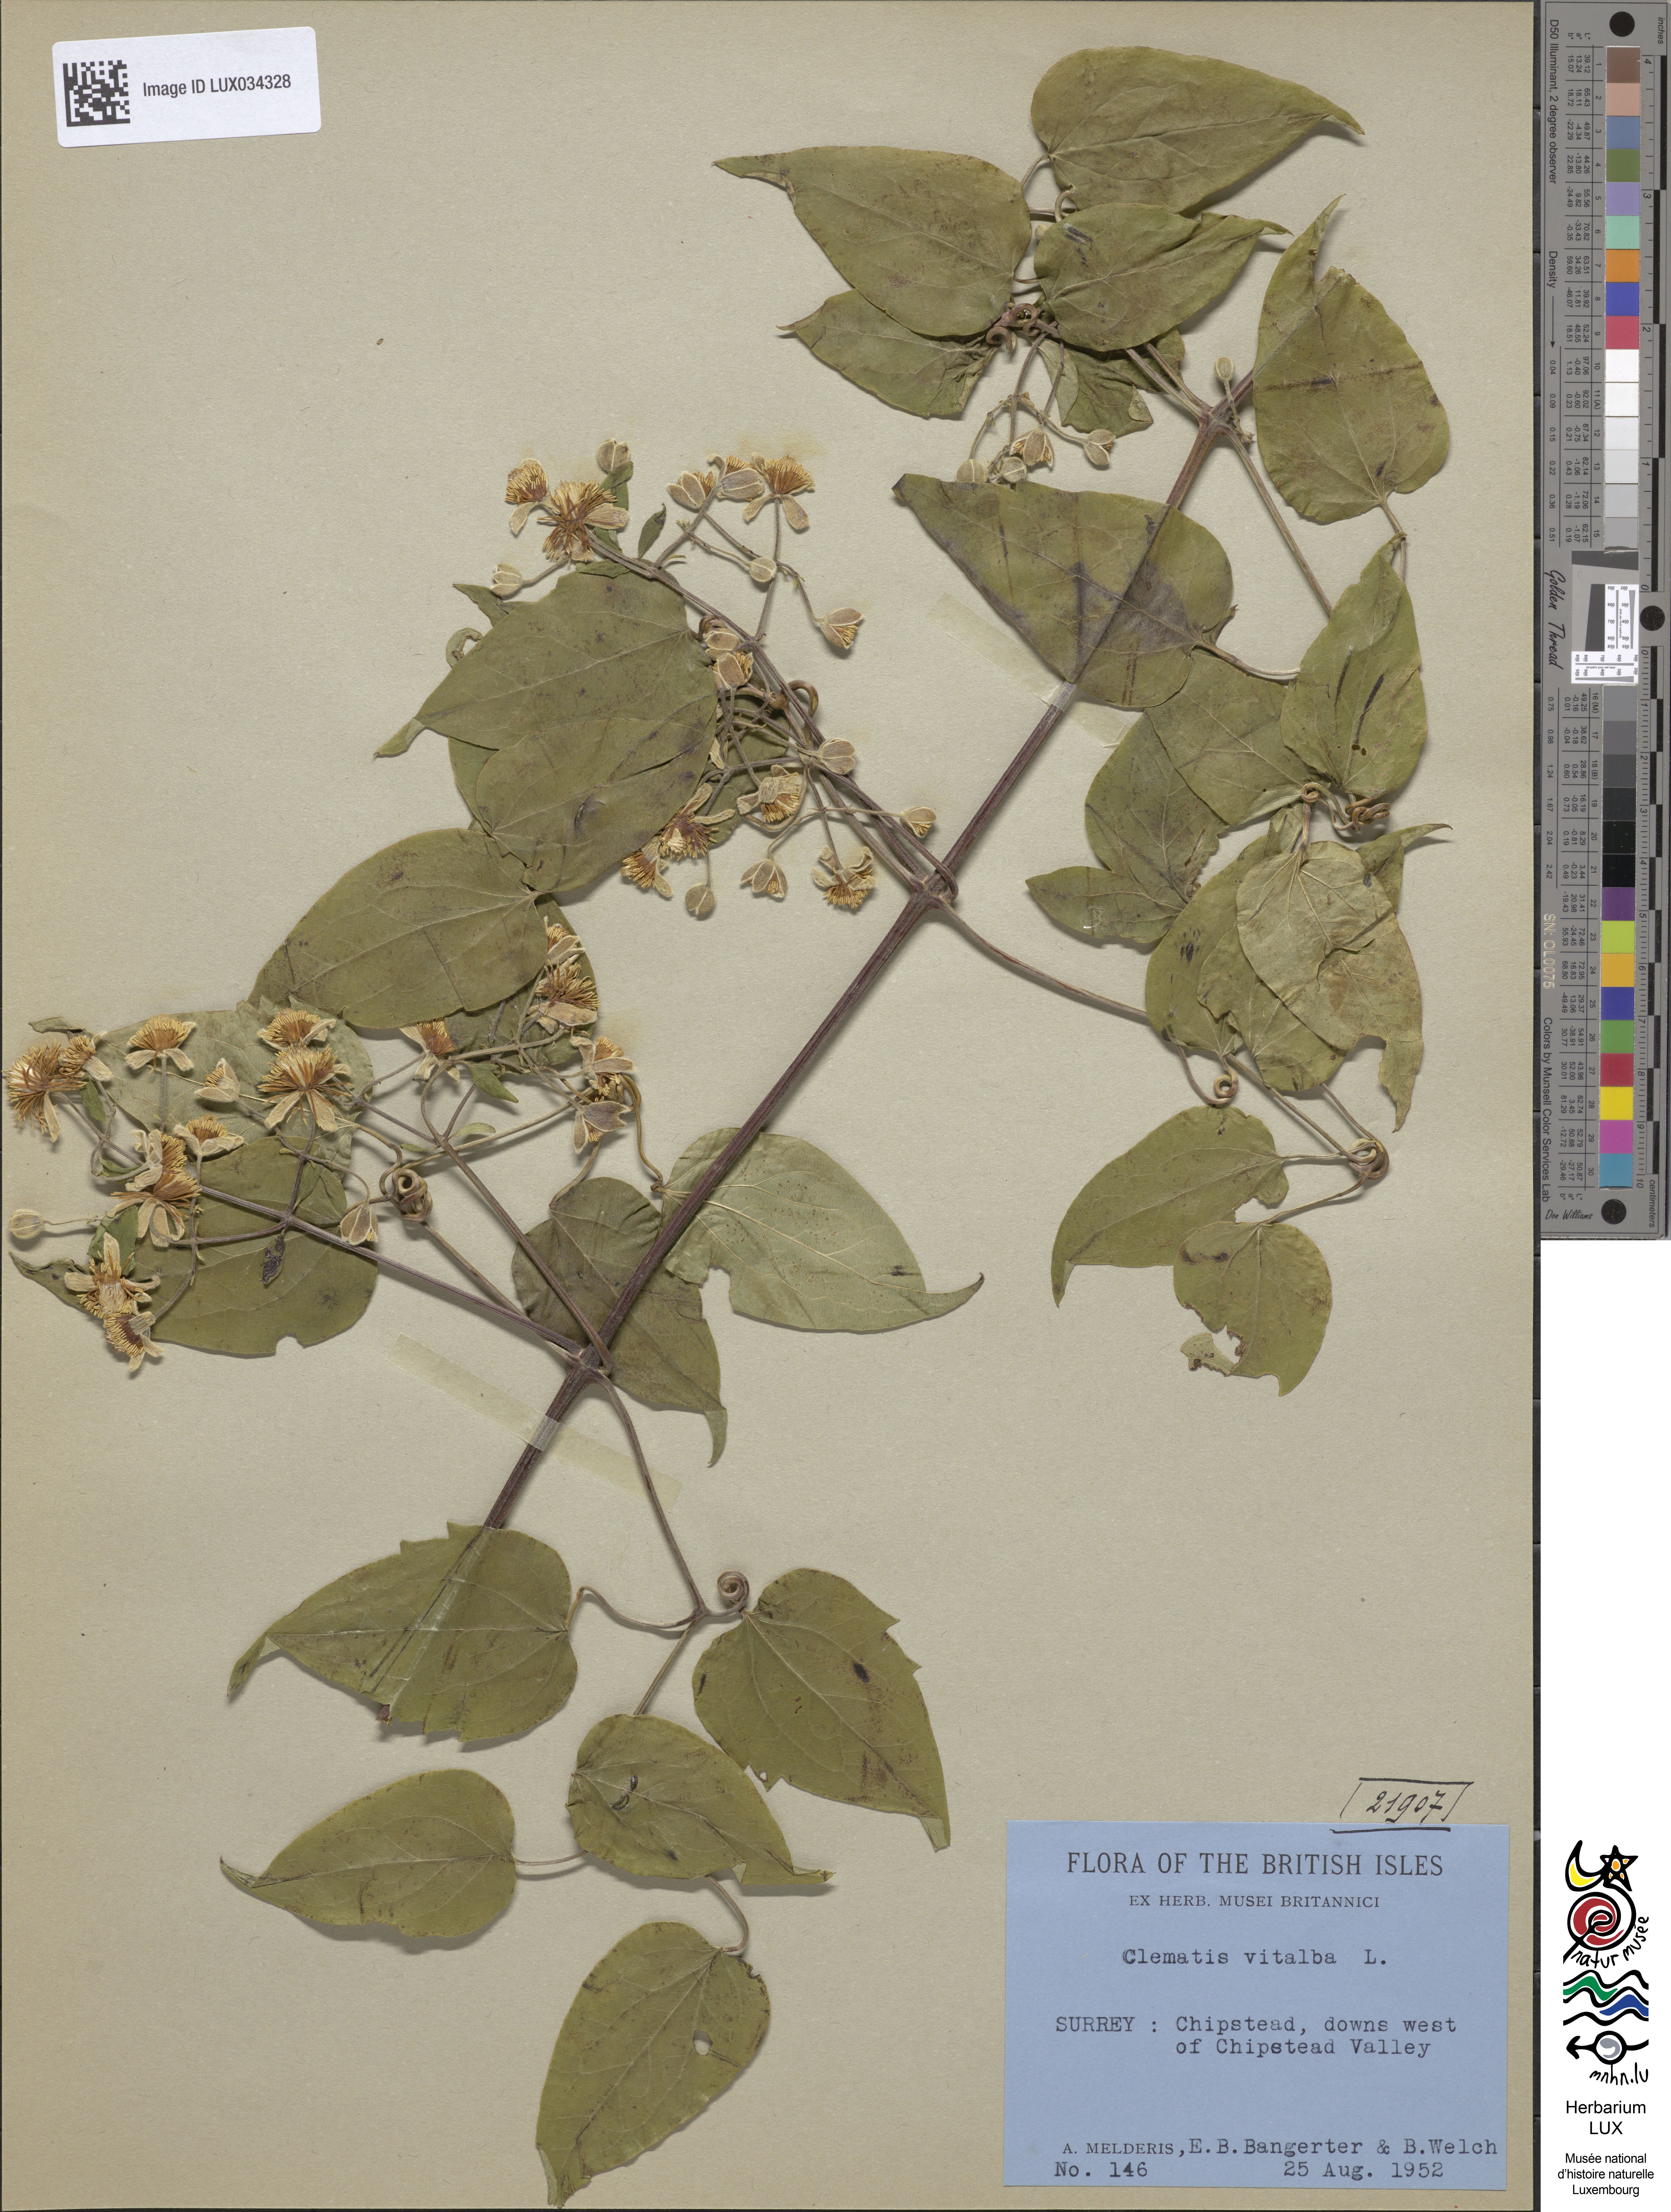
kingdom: Plantae
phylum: Tracheophyta
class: Magnoliopsida
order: Ranunculales
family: Ranunculaceae
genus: Clematis
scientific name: Clematis vitalba
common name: Evergreen clematis
